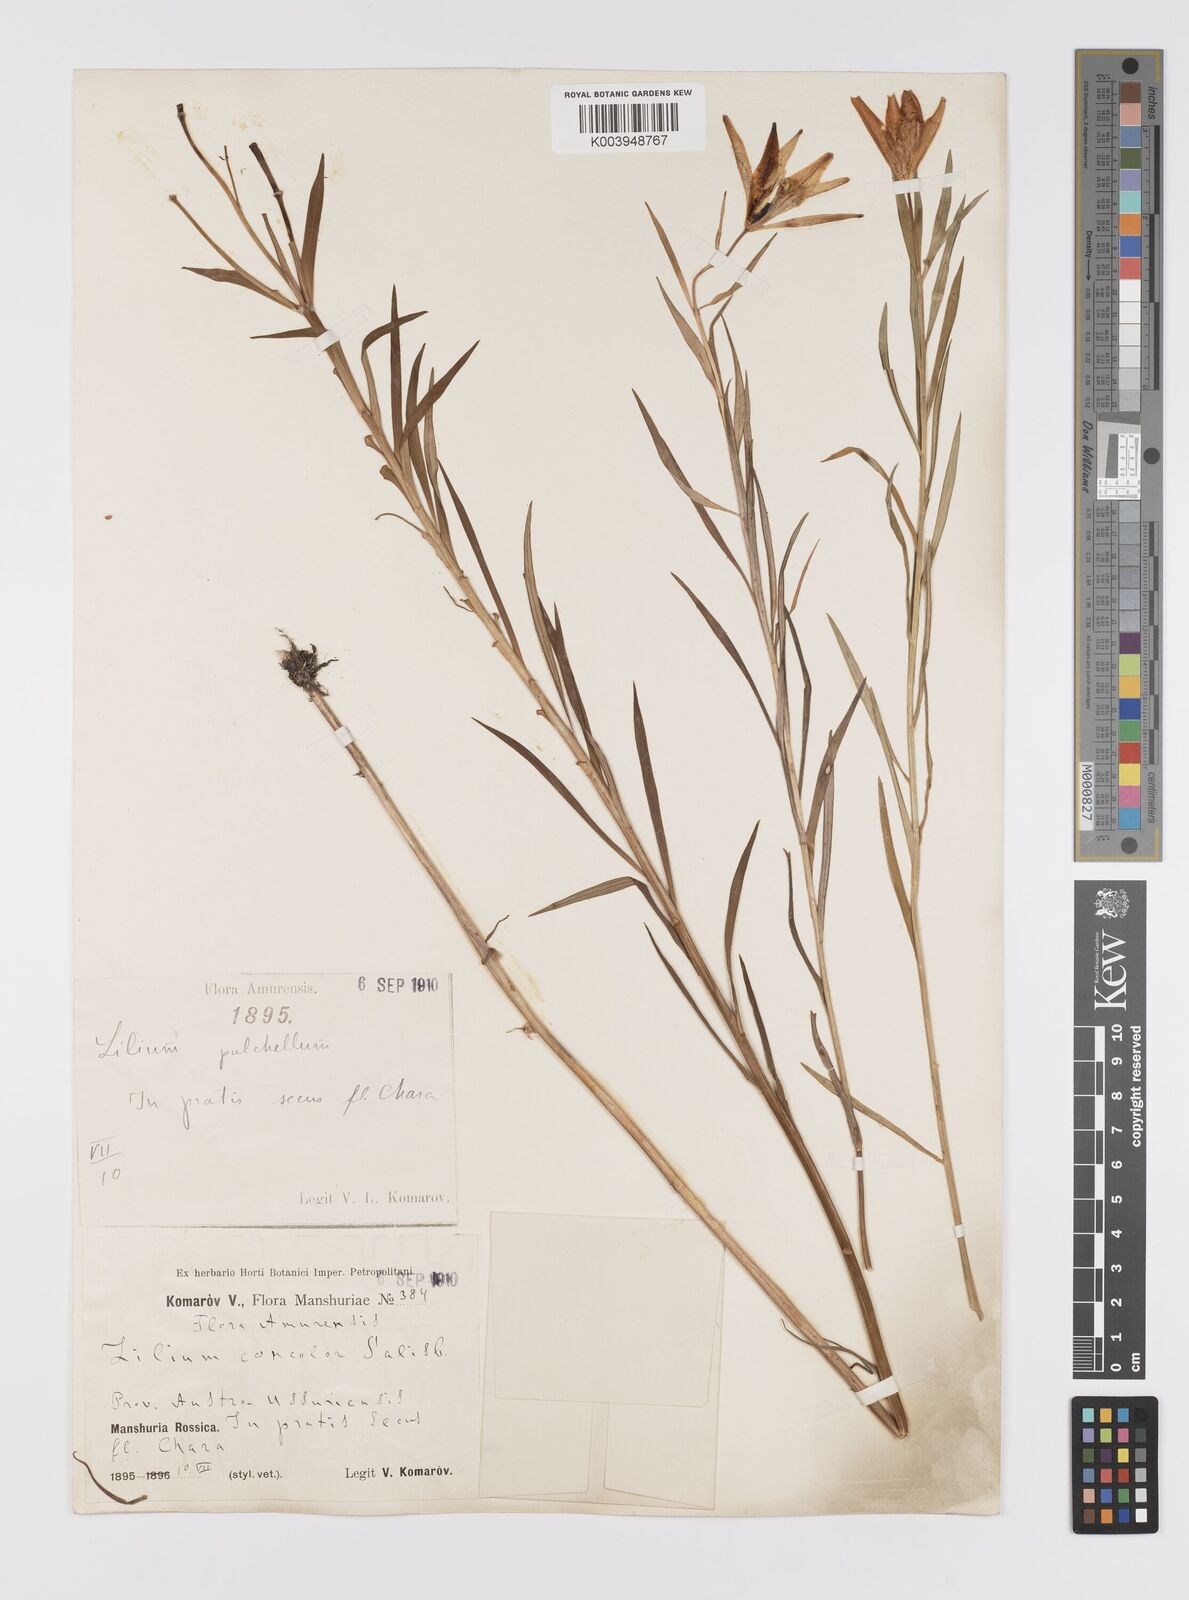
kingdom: Plantae
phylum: Tracheophyta
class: Liliopsida
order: Liliales
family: Liliaceae
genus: Lilium
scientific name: Lilium concolor
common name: Morning-star lily
